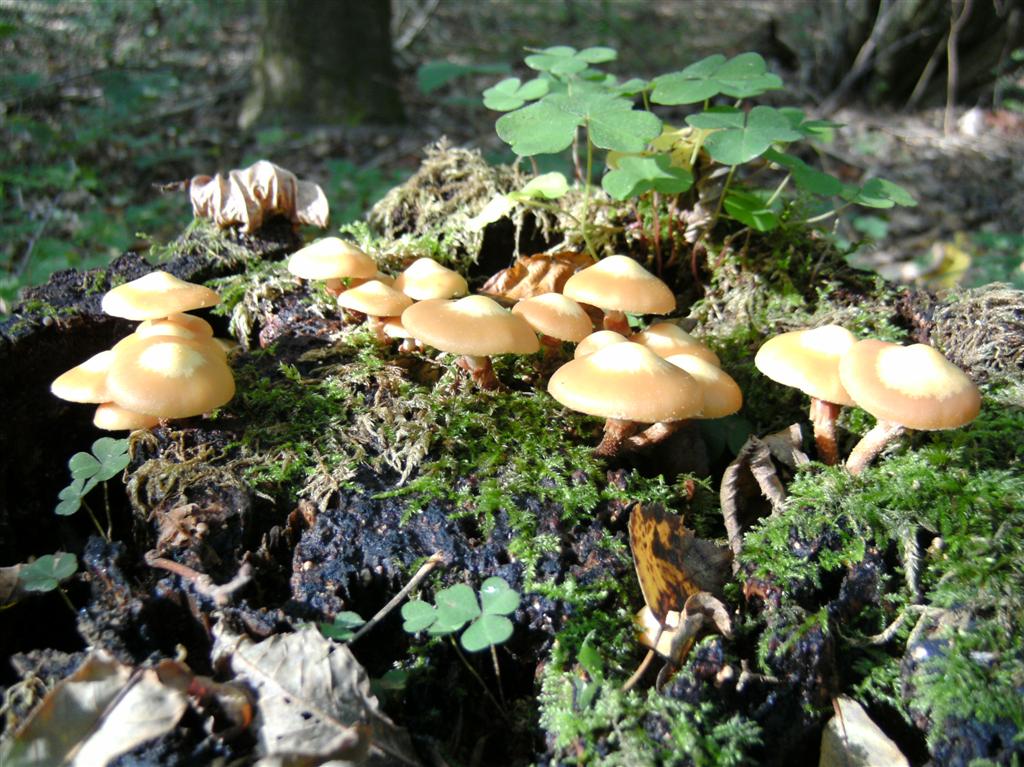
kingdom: Fungi
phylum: Basidiomycota
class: Agaricomycetes
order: Agaricales
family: Strophariaceae
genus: Kuehneromyces
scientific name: Kuehneromyces mutabilis
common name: foranderlig skælhat
